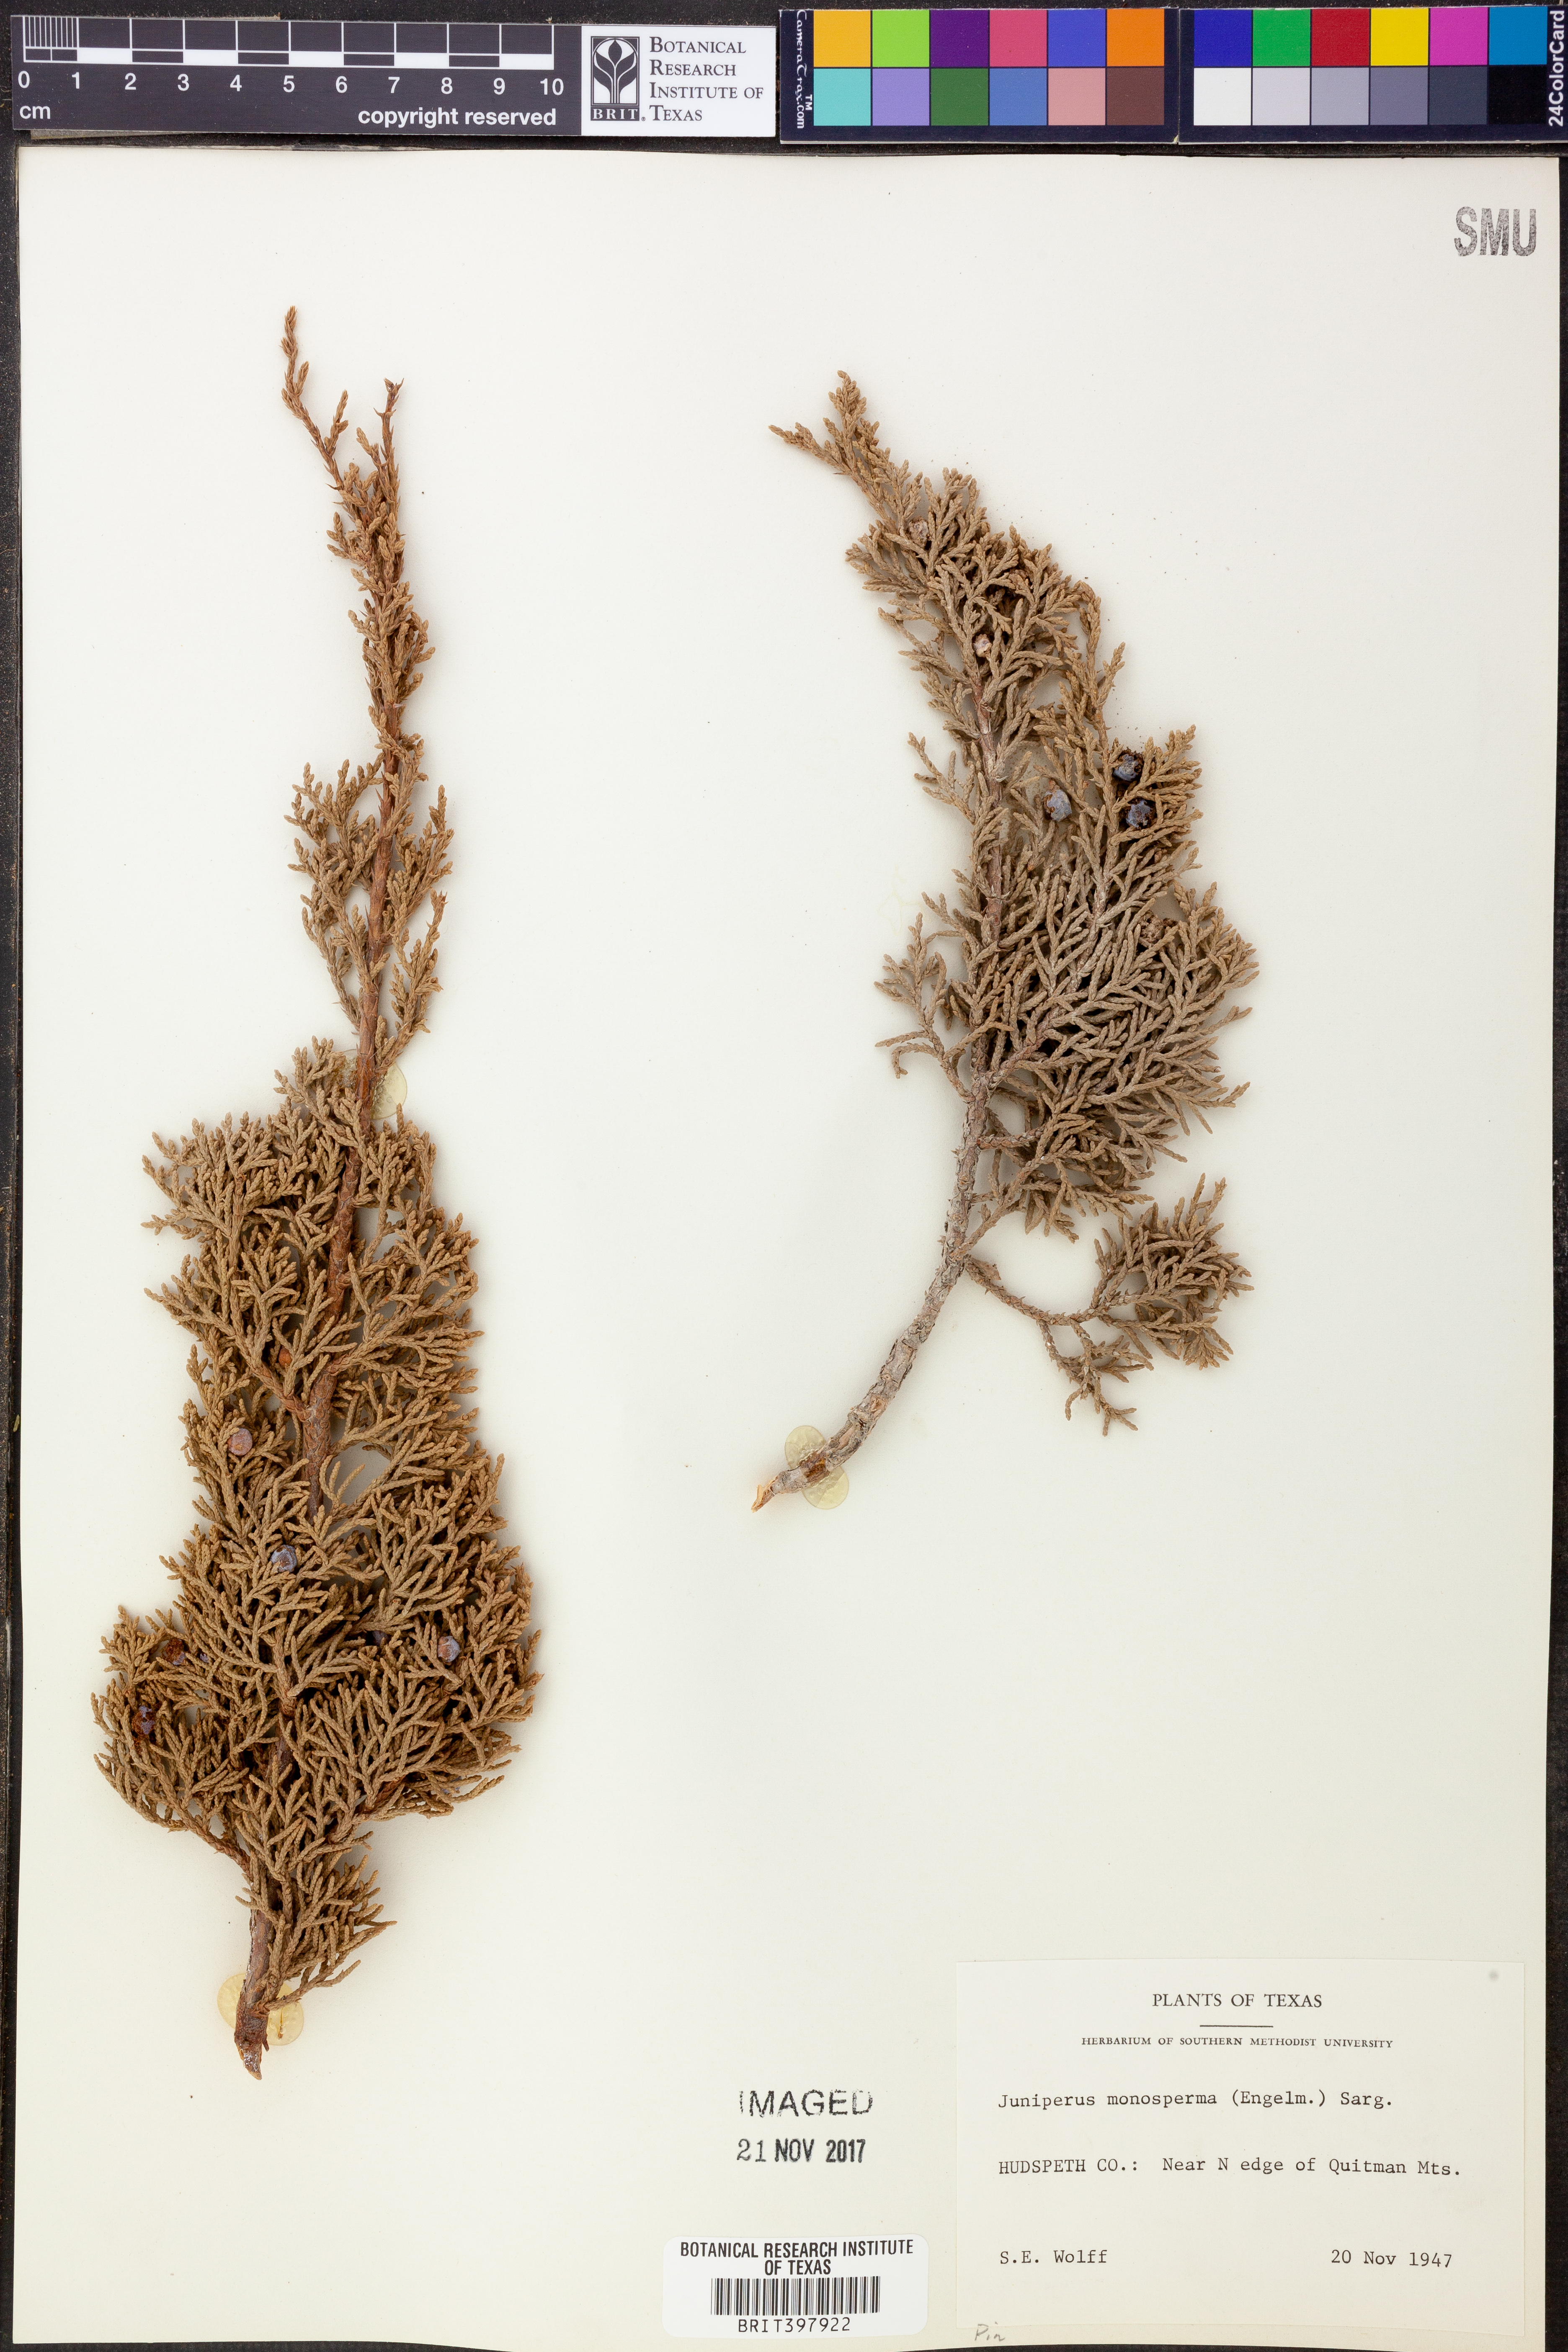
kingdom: Plantae
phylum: Tracheophyta
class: Pinopsida
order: Pinales
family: Cupressaceae
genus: Juniperus
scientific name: Juniperus monosperma
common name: One-seed juniper
